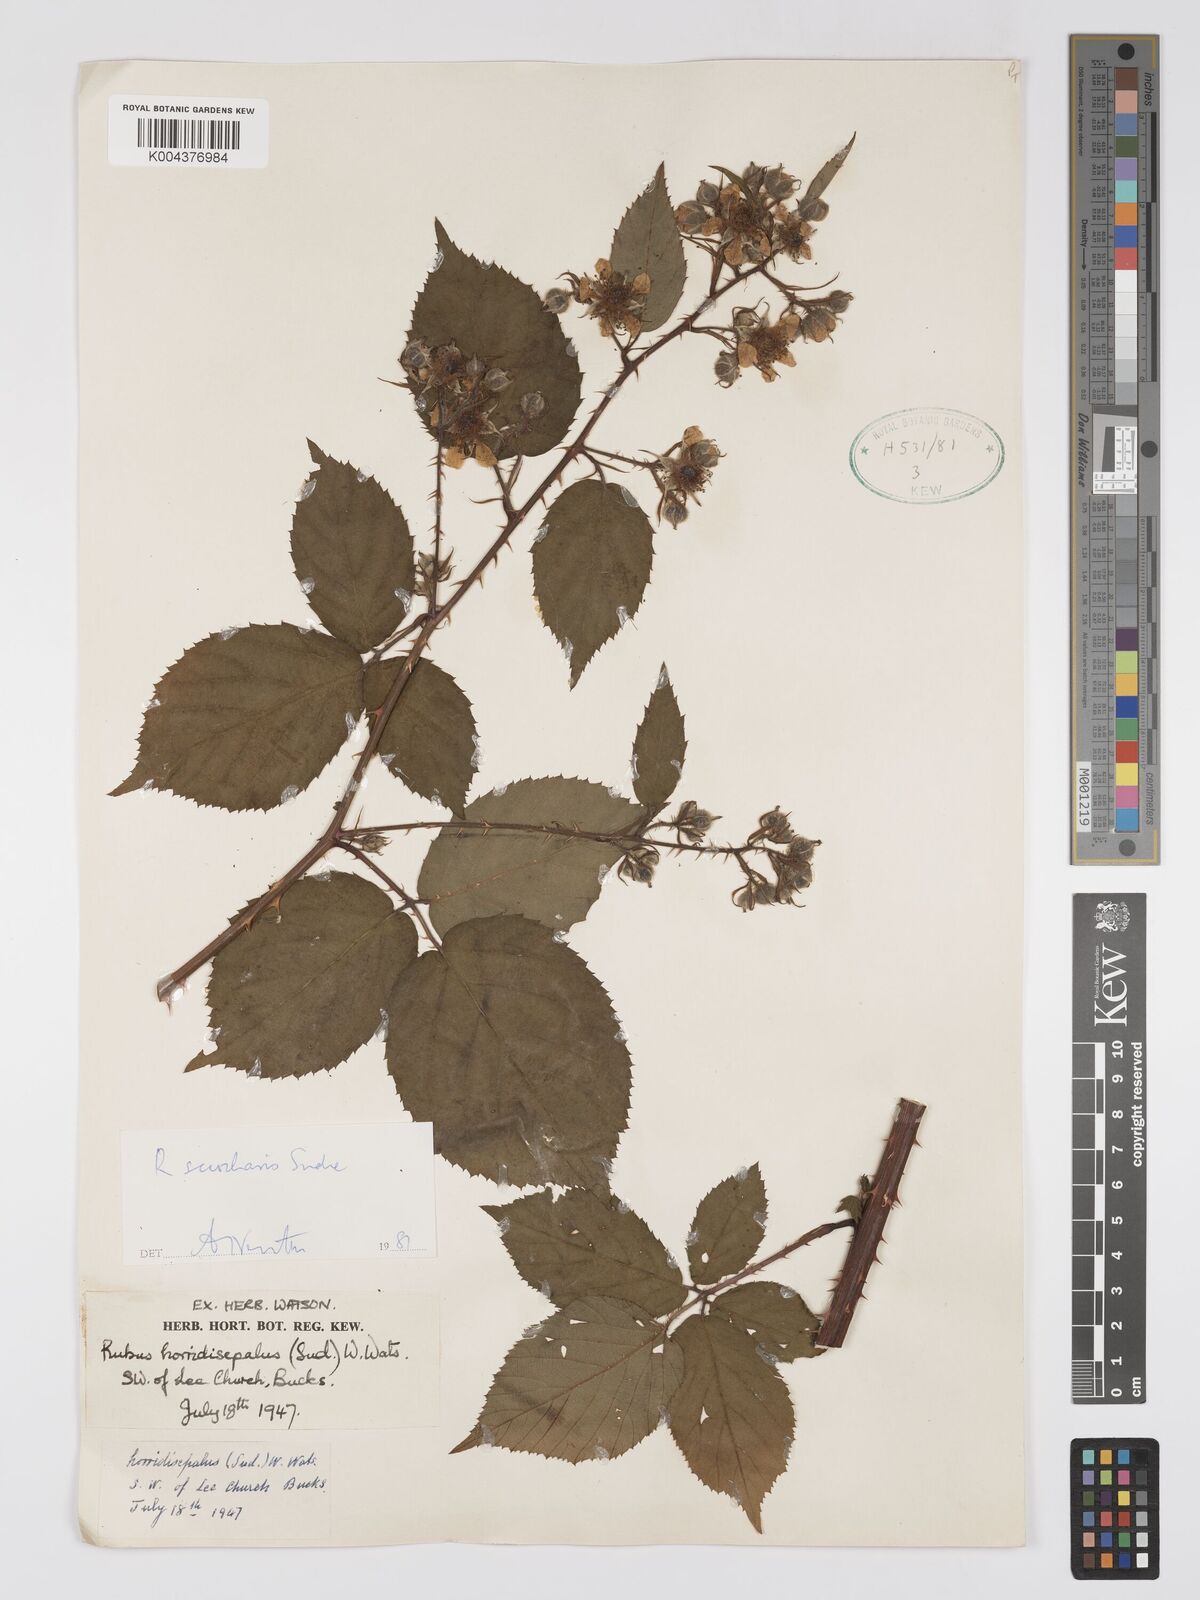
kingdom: Plantae
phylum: Tracheophyta
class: Magnoliopsida
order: Rosales
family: Rosaceae
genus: Rubus
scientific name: Rubus sciocharis
